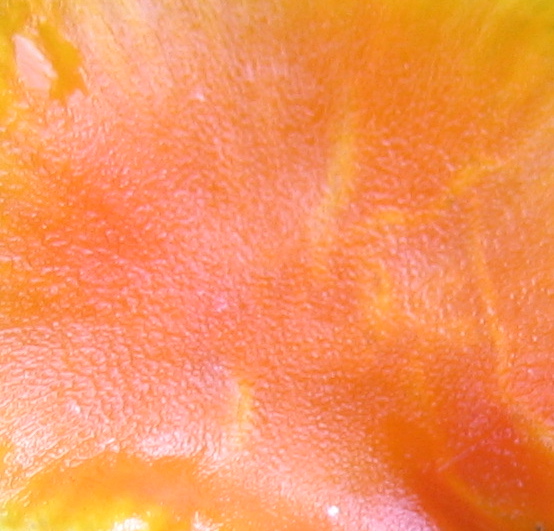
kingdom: Fungi
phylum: Basidiomycota
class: Agaricomycetes
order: Agaricales
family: Hygrophoraceae
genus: Hygrocybe
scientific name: Hygrocybe ceracea
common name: voksgul vokshat
